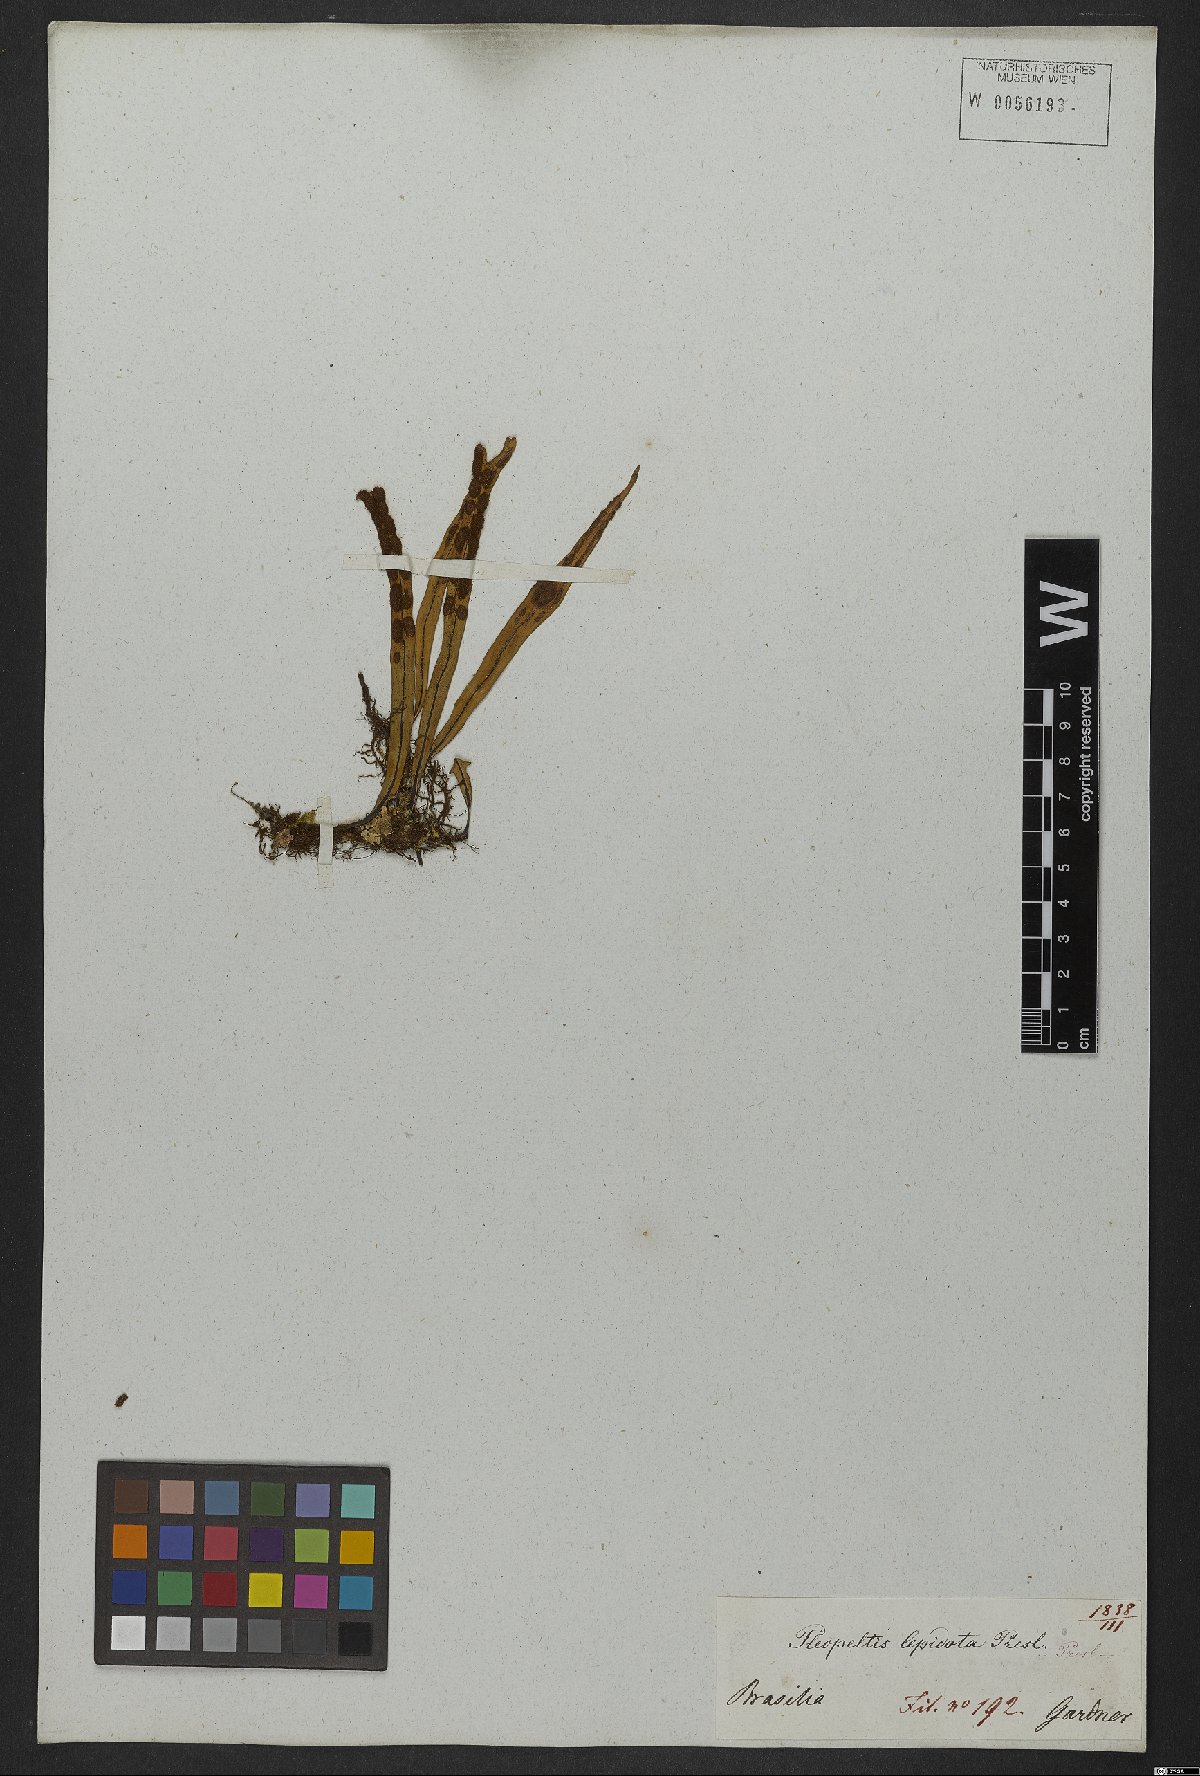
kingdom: Plantae
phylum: Tracheophyta
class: Polypodiopsida
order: Polypodiales
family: Polypodiaceae
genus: Pleopeltis
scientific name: Pleopeltis macrocarpa
